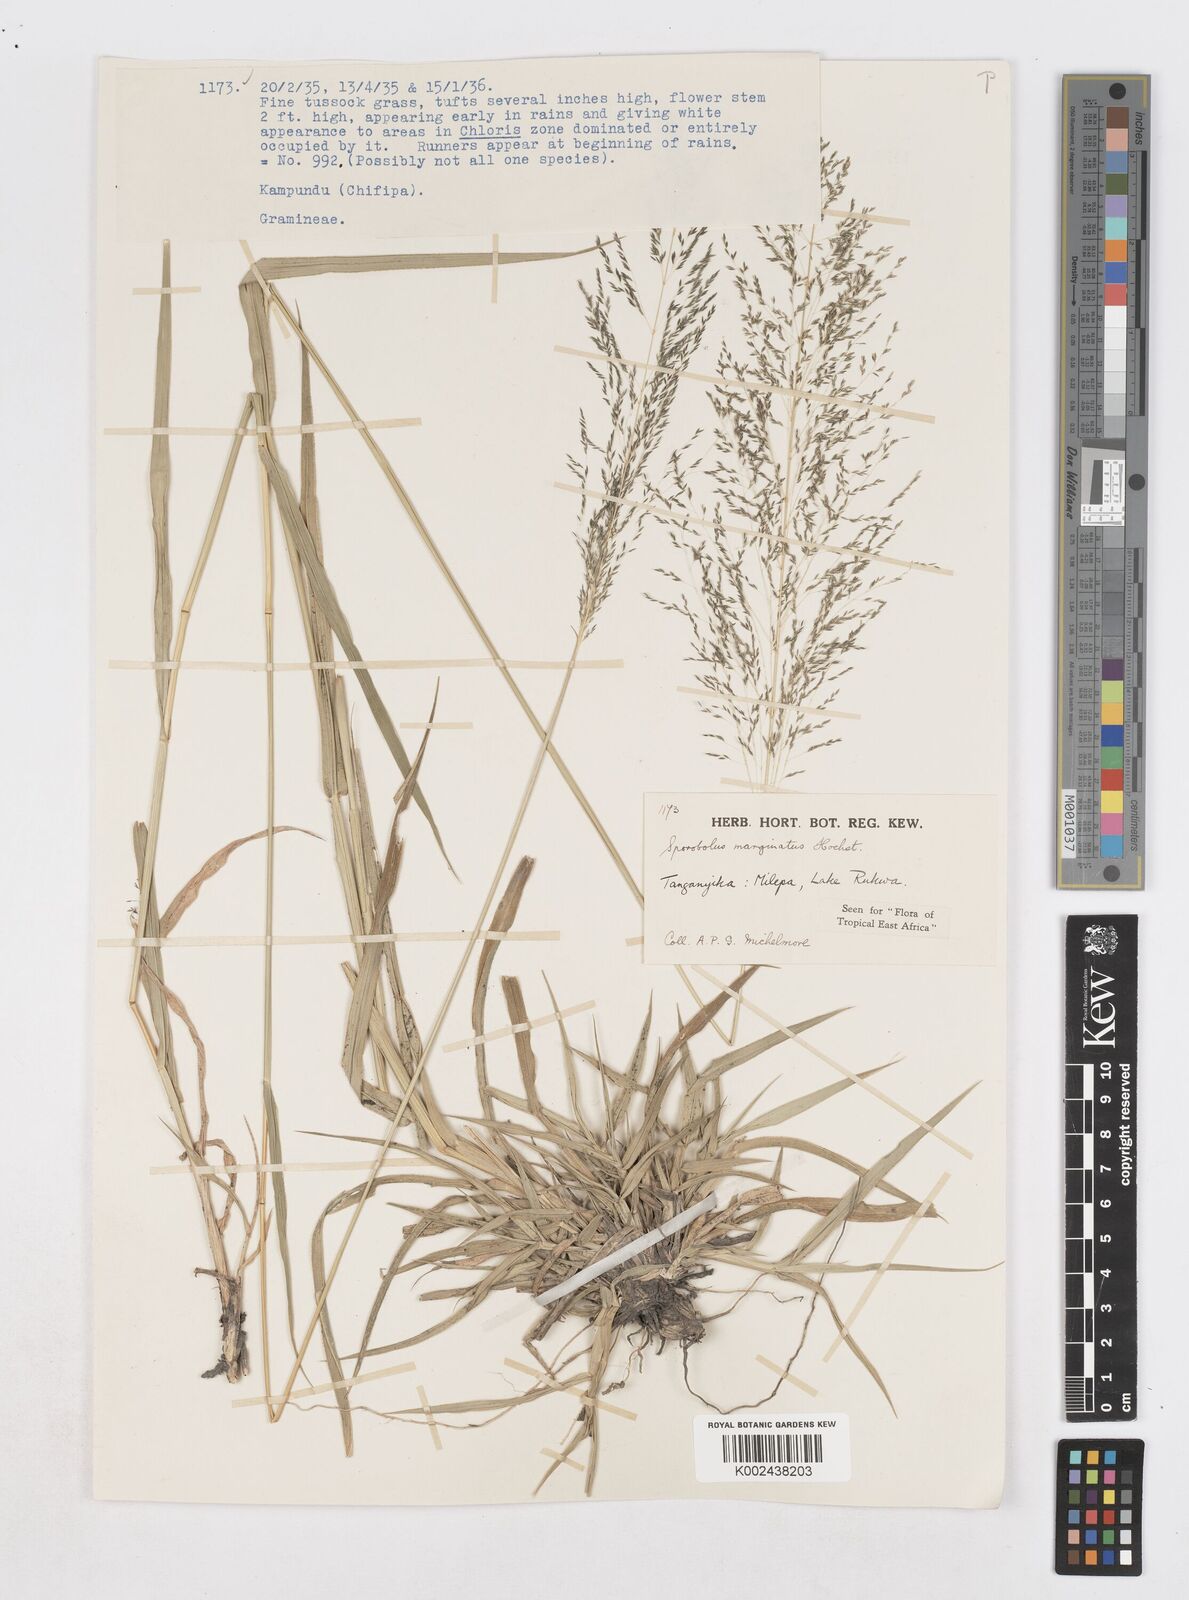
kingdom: Plantae
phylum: Tracheophyta
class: Liliopsida
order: Poales
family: Poaceae
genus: Sporobolus
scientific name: Sporobolus ioclados
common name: Pan dropseed
